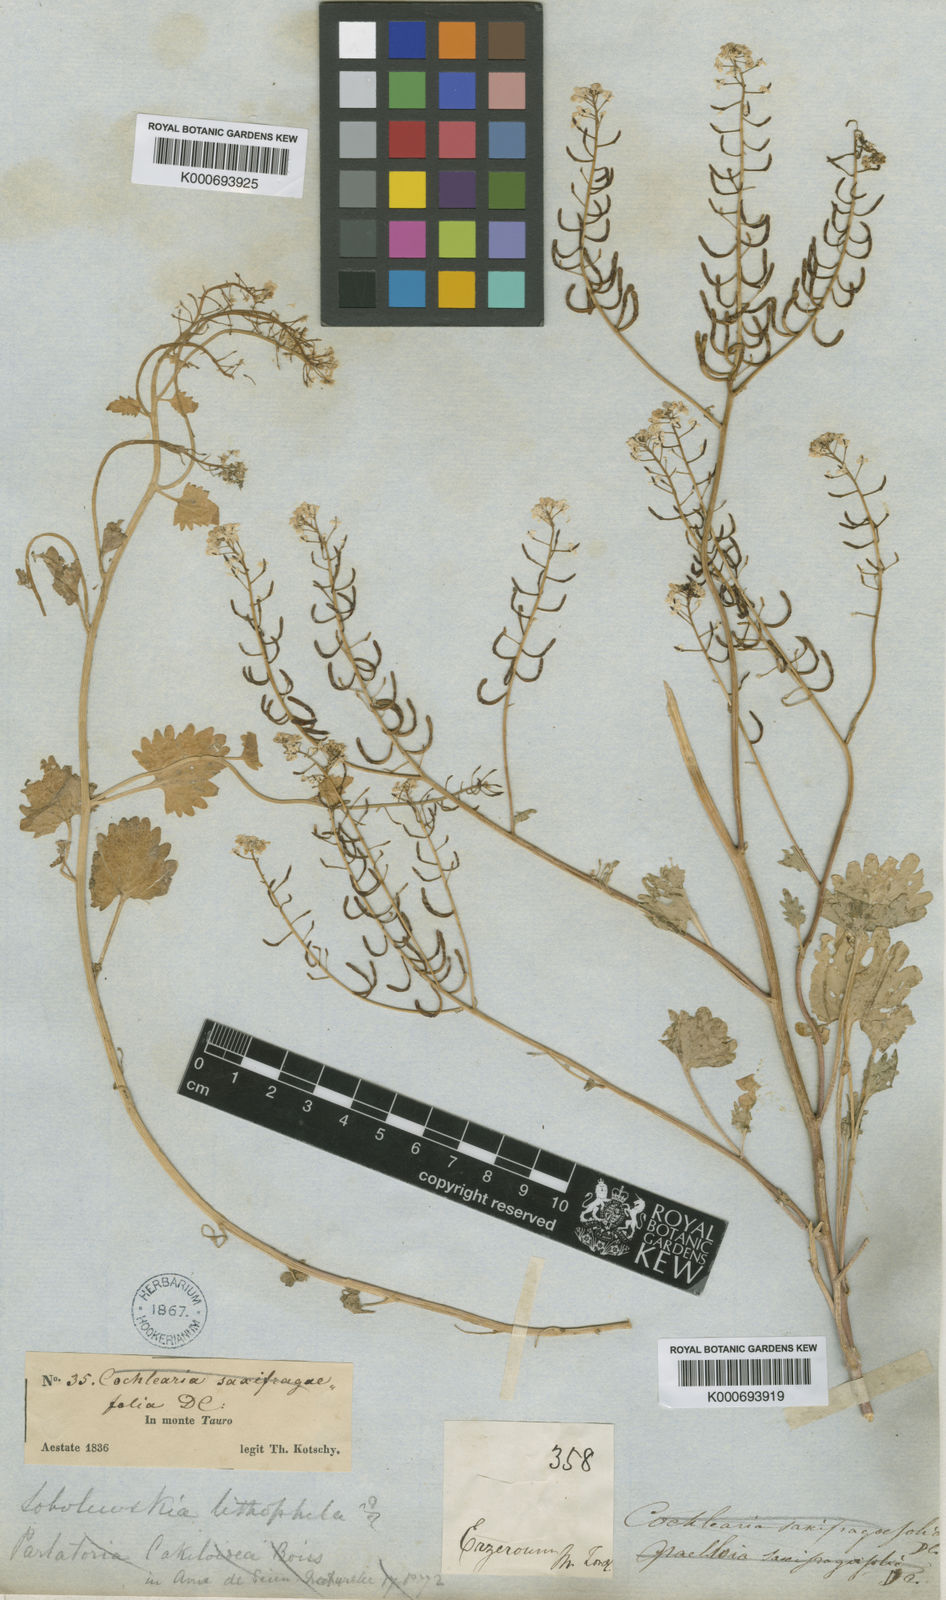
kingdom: Plantae
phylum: Tracheophyta
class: Magnoliopsida
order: Brassicales
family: Brassicaceae
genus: Sobolewskia
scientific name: Sobolewskia clavata
